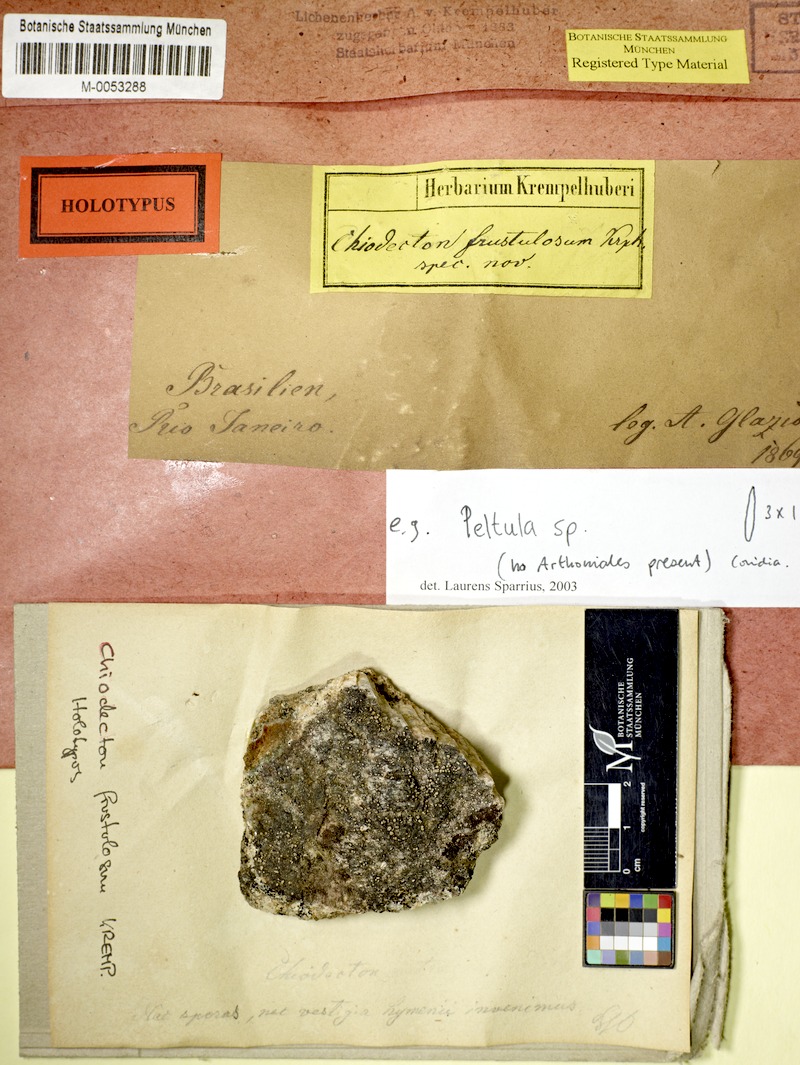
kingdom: Fungi
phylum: Ascomycota
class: Arthoniomycetes
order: Arthoniales
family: Roccellaceae
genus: Enterographa
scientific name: Enterographa
